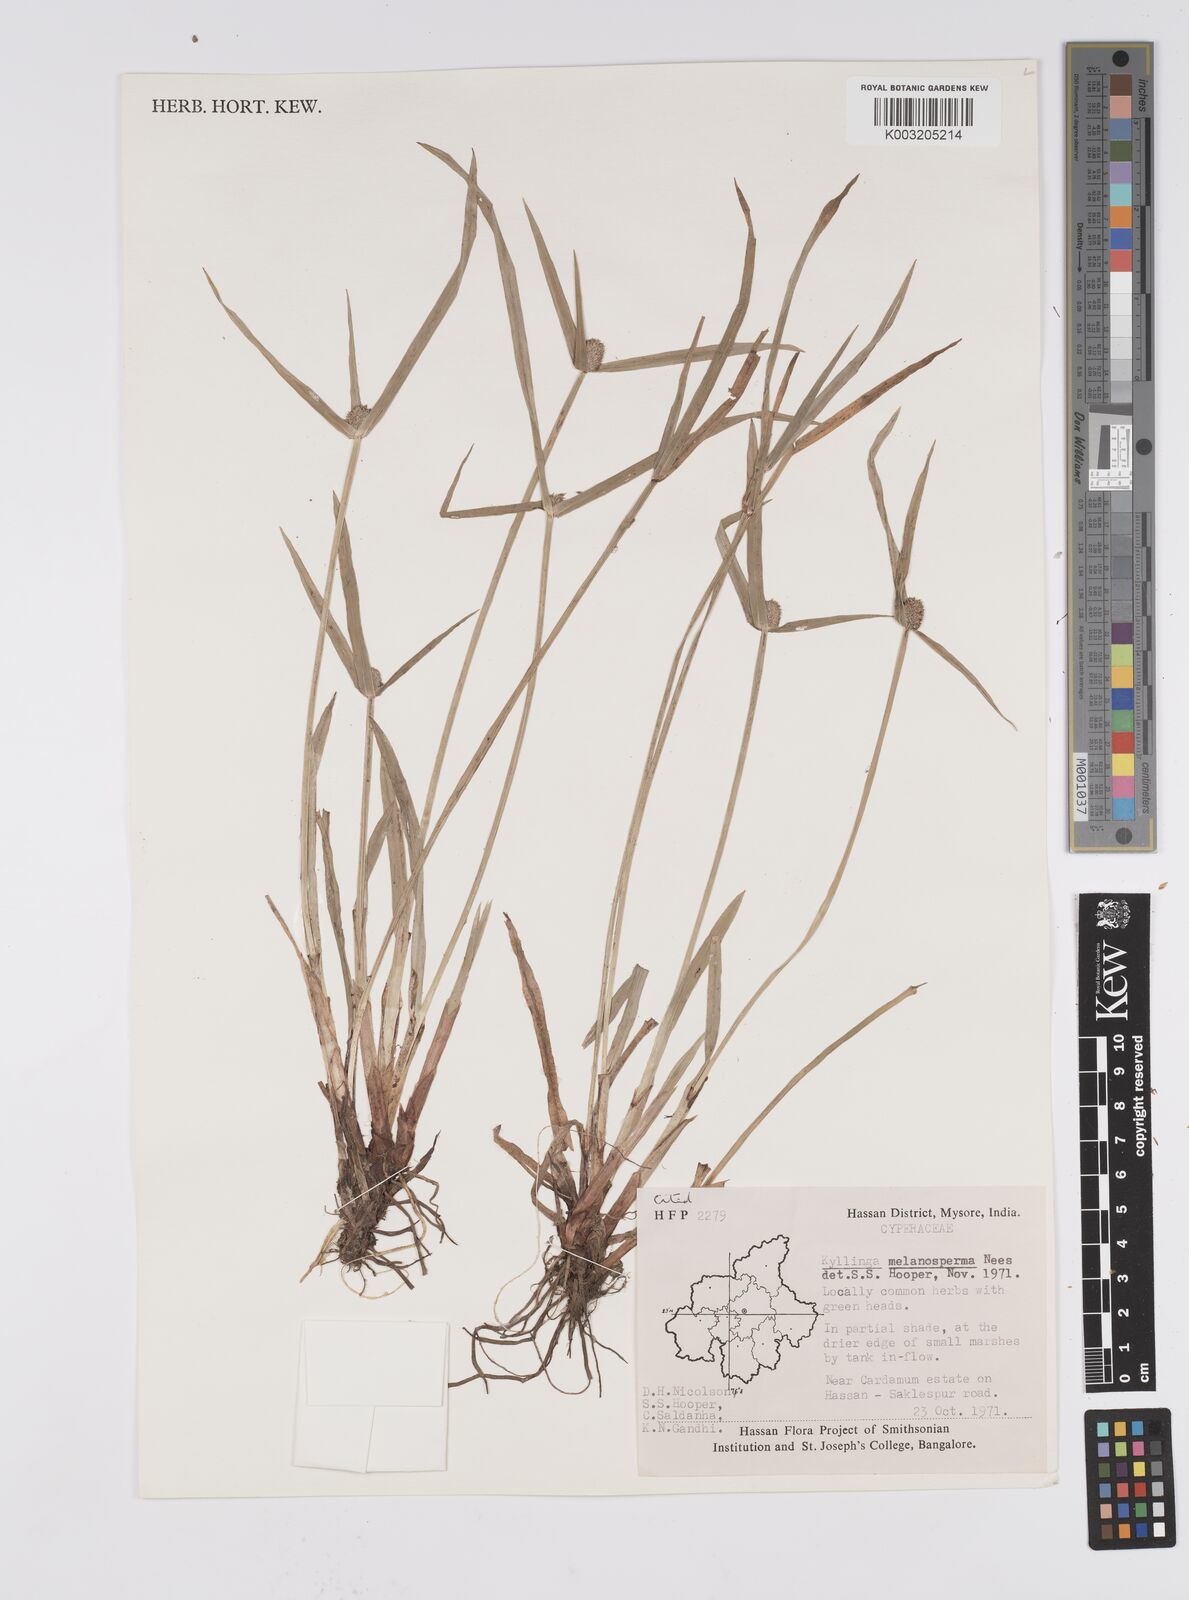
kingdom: Plantae
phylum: Tracheophyta
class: Liliopsida
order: Poales
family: Cyperaceae
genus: Cyperus
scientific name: Cyperus melanospermus
